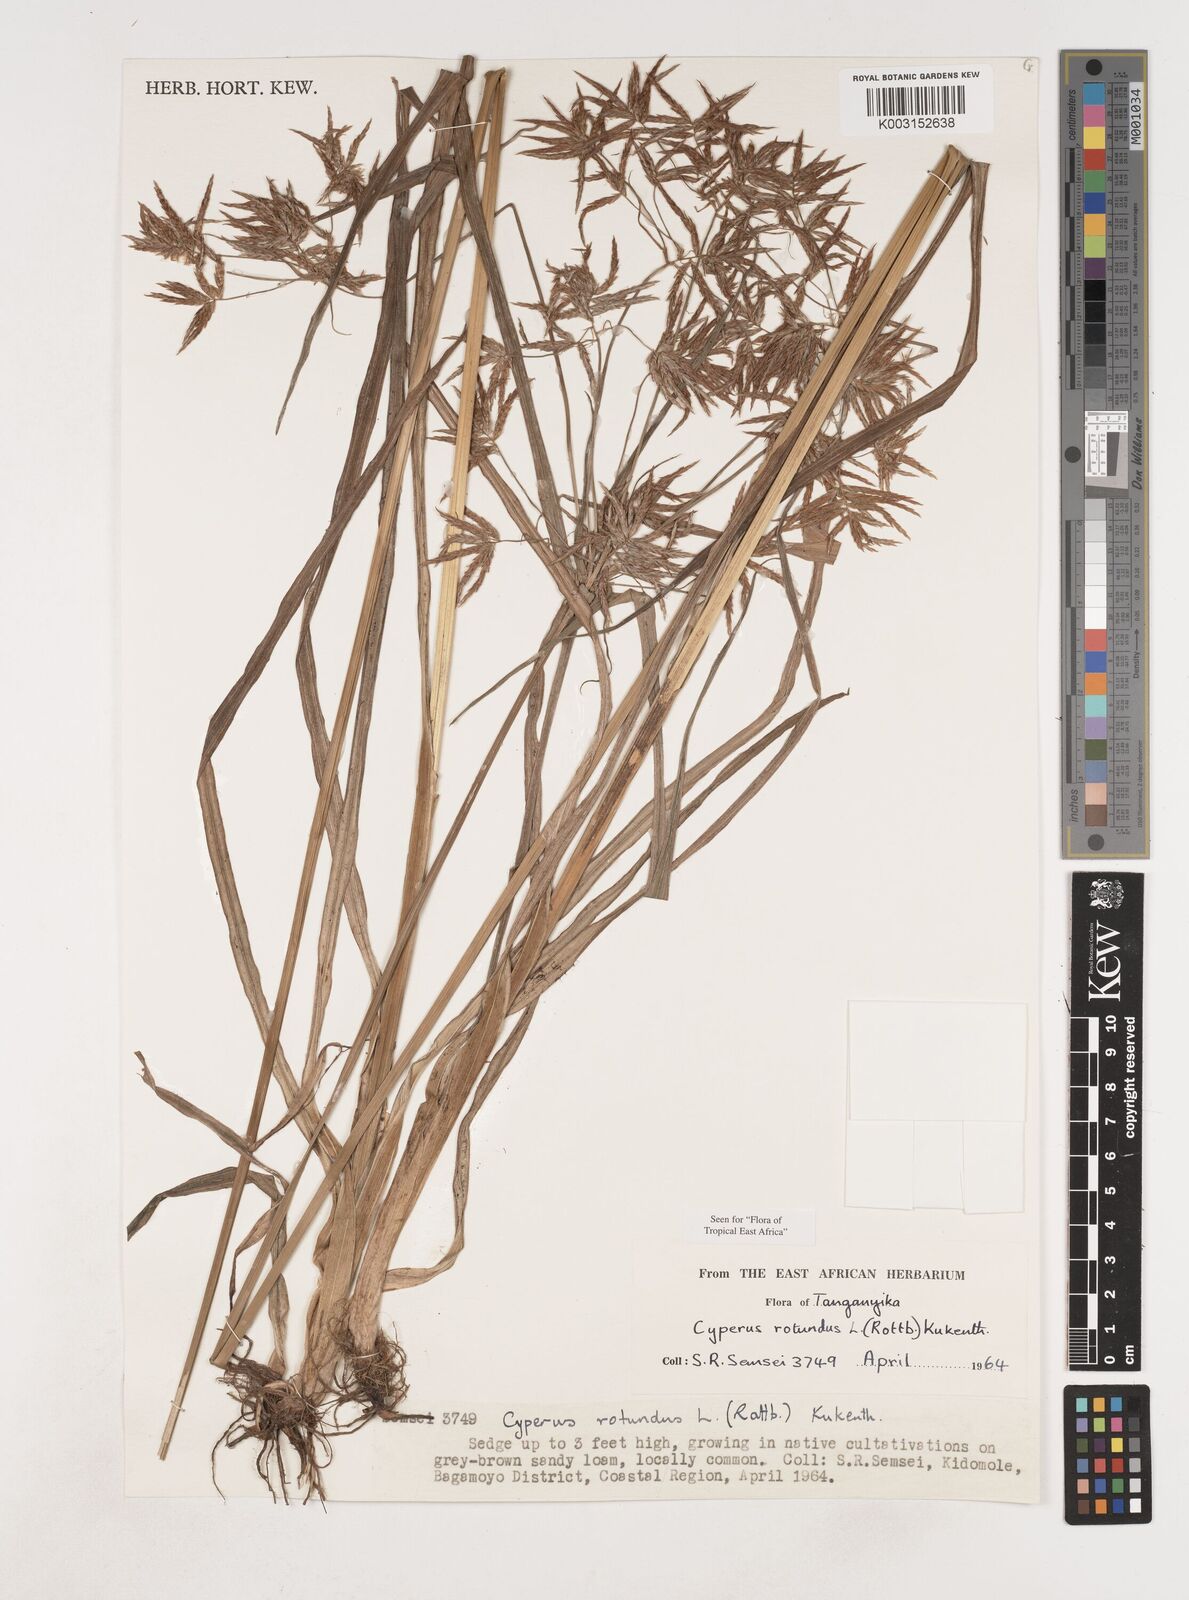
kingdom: Plantae
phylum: Tracheophyta
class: Liliopsida
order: Poales
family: Cyperaceae
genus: Cyperus
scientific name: Cyperus rotundus
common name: Nutgrass
